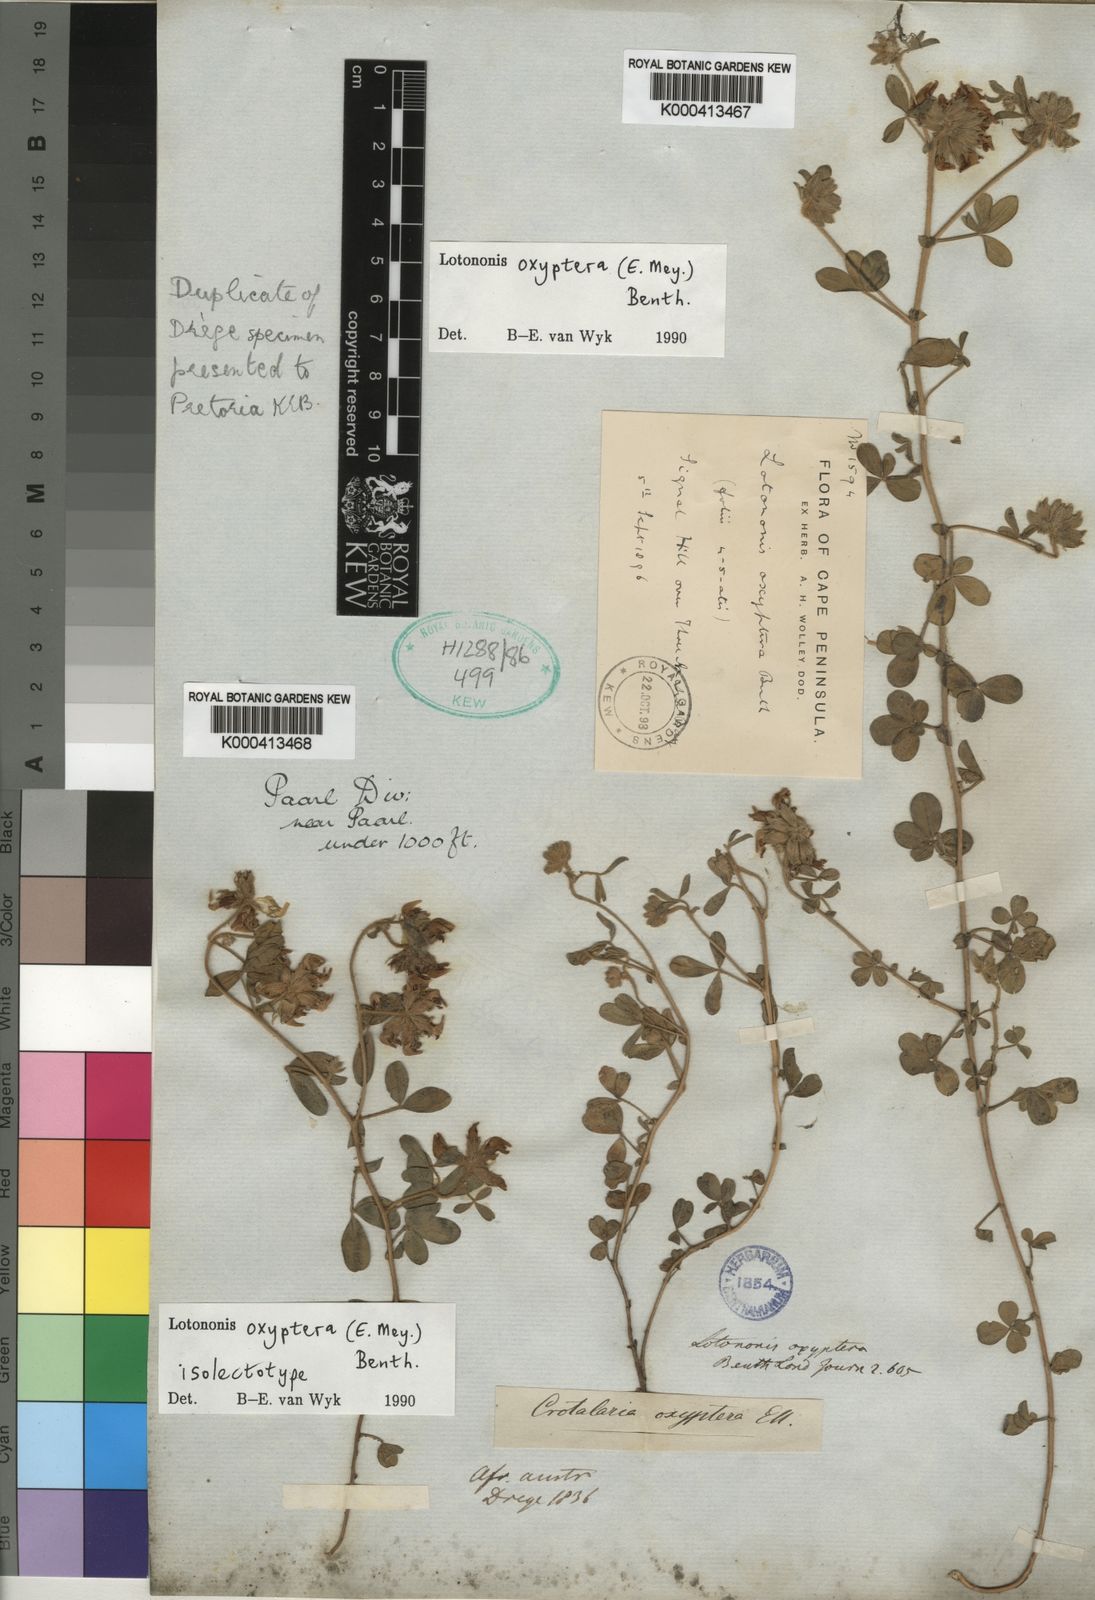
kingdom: Plantae
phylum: Tracheophyta
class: Magnoliopsida
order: Fabales
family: Fabaceae
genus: Lotononis
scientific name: Lotononis oxyptera
